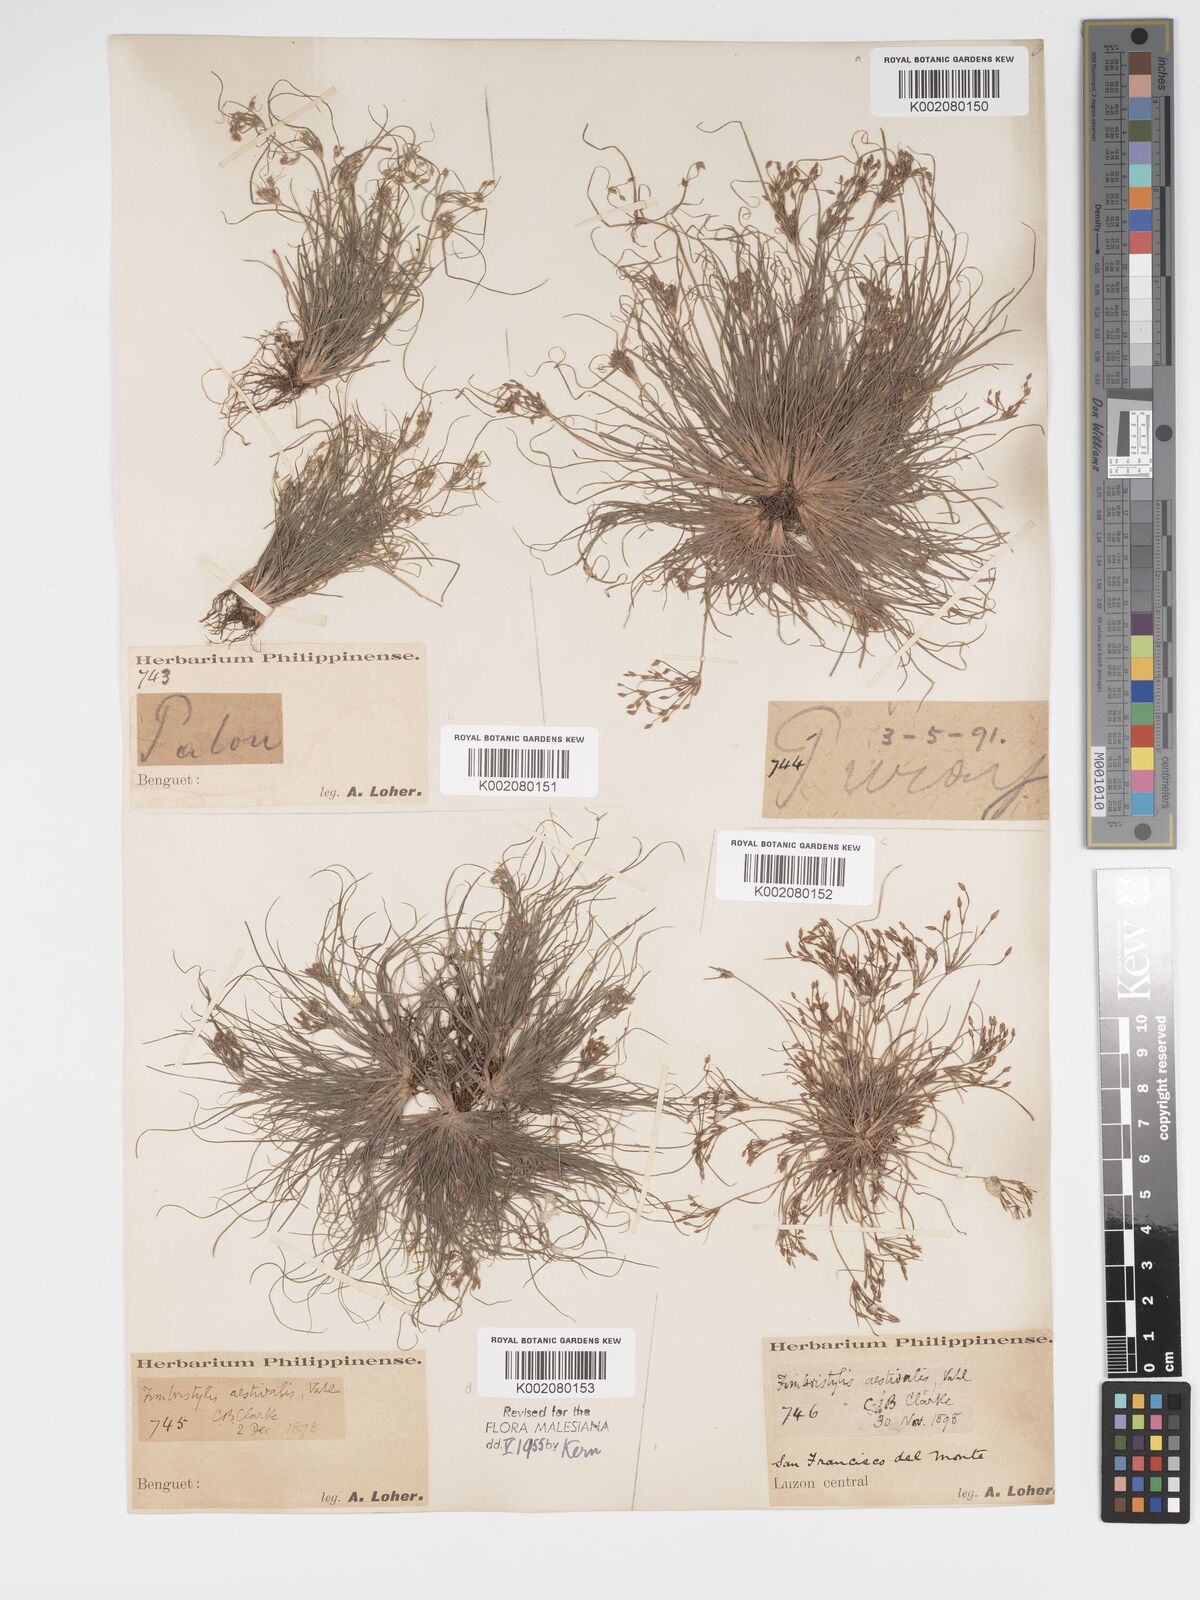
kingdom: Plantae
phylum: Tracheophyta
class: Liliopsida
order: Poales
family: Cyperaceae
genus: Fimbristylis
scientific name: Fimbristylis aestivalis
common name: Summer fimbry
